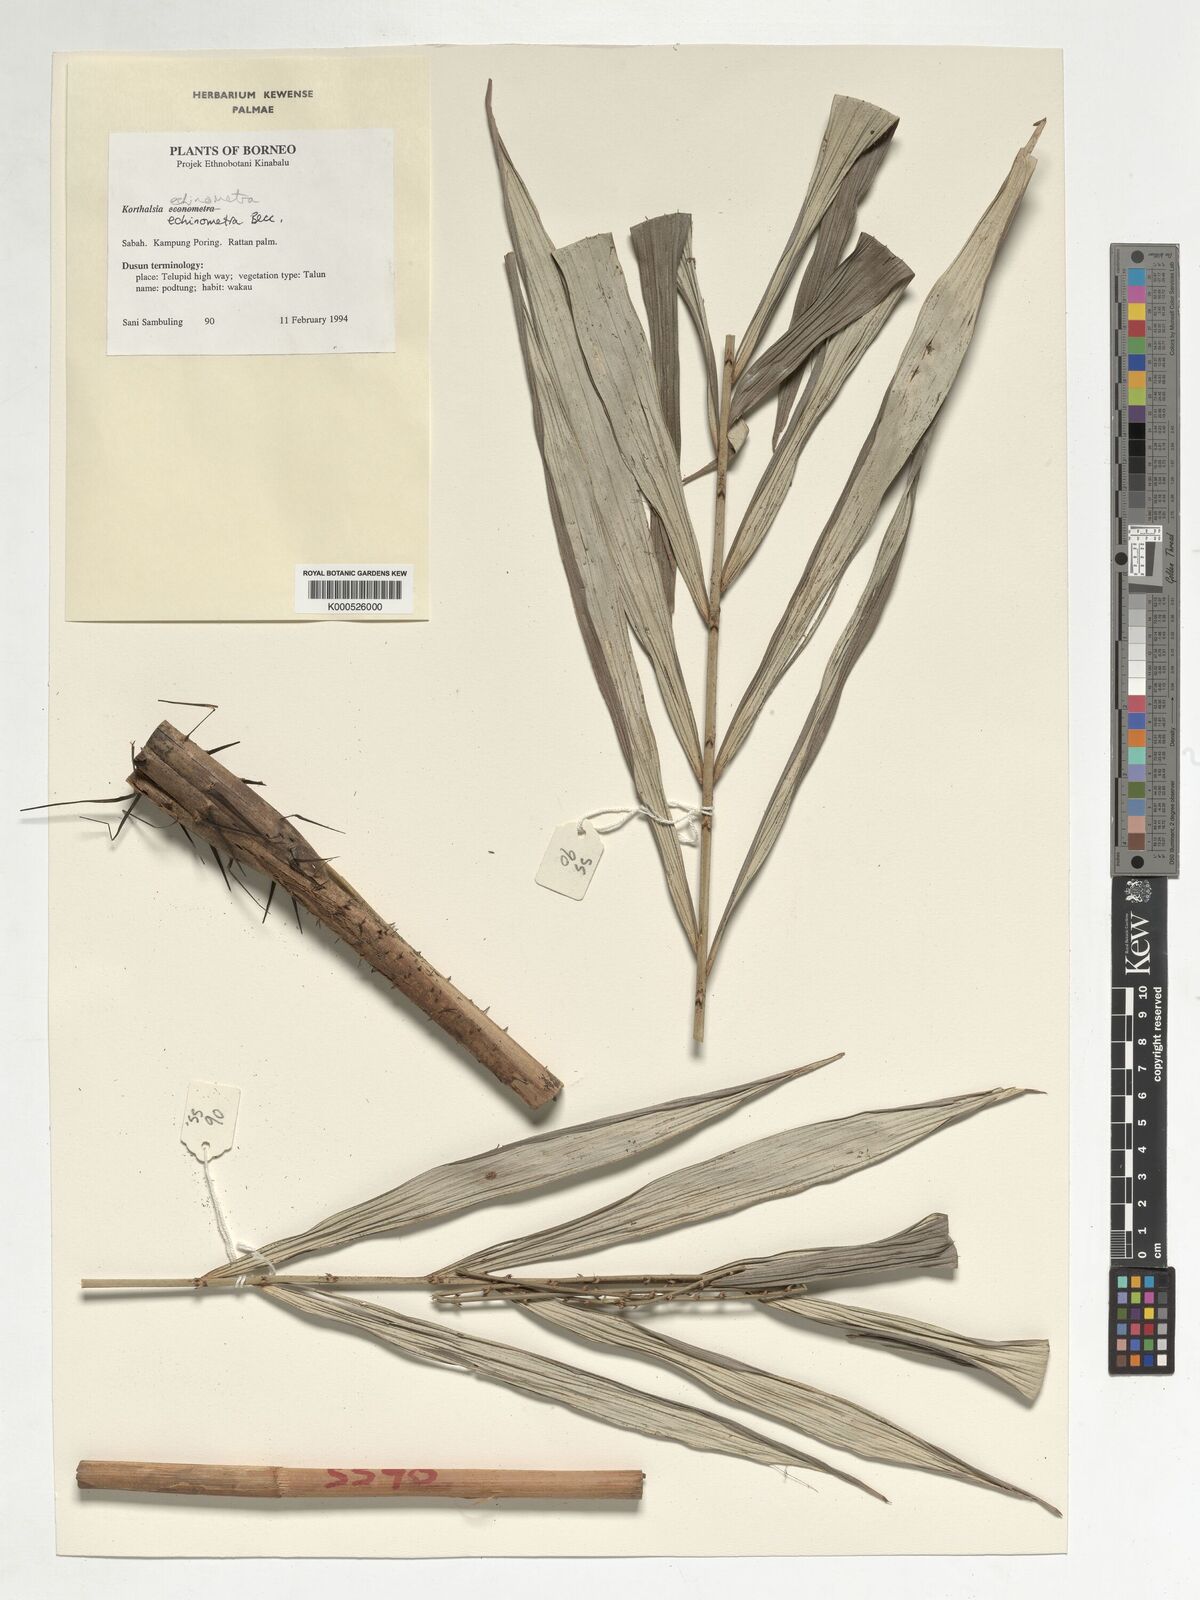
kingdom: Plantae
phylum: Tracheophyta
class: Liliopsida
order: Arecales
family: Arecaceae
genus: Korthalsia
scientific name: Korthalsia echinometra
